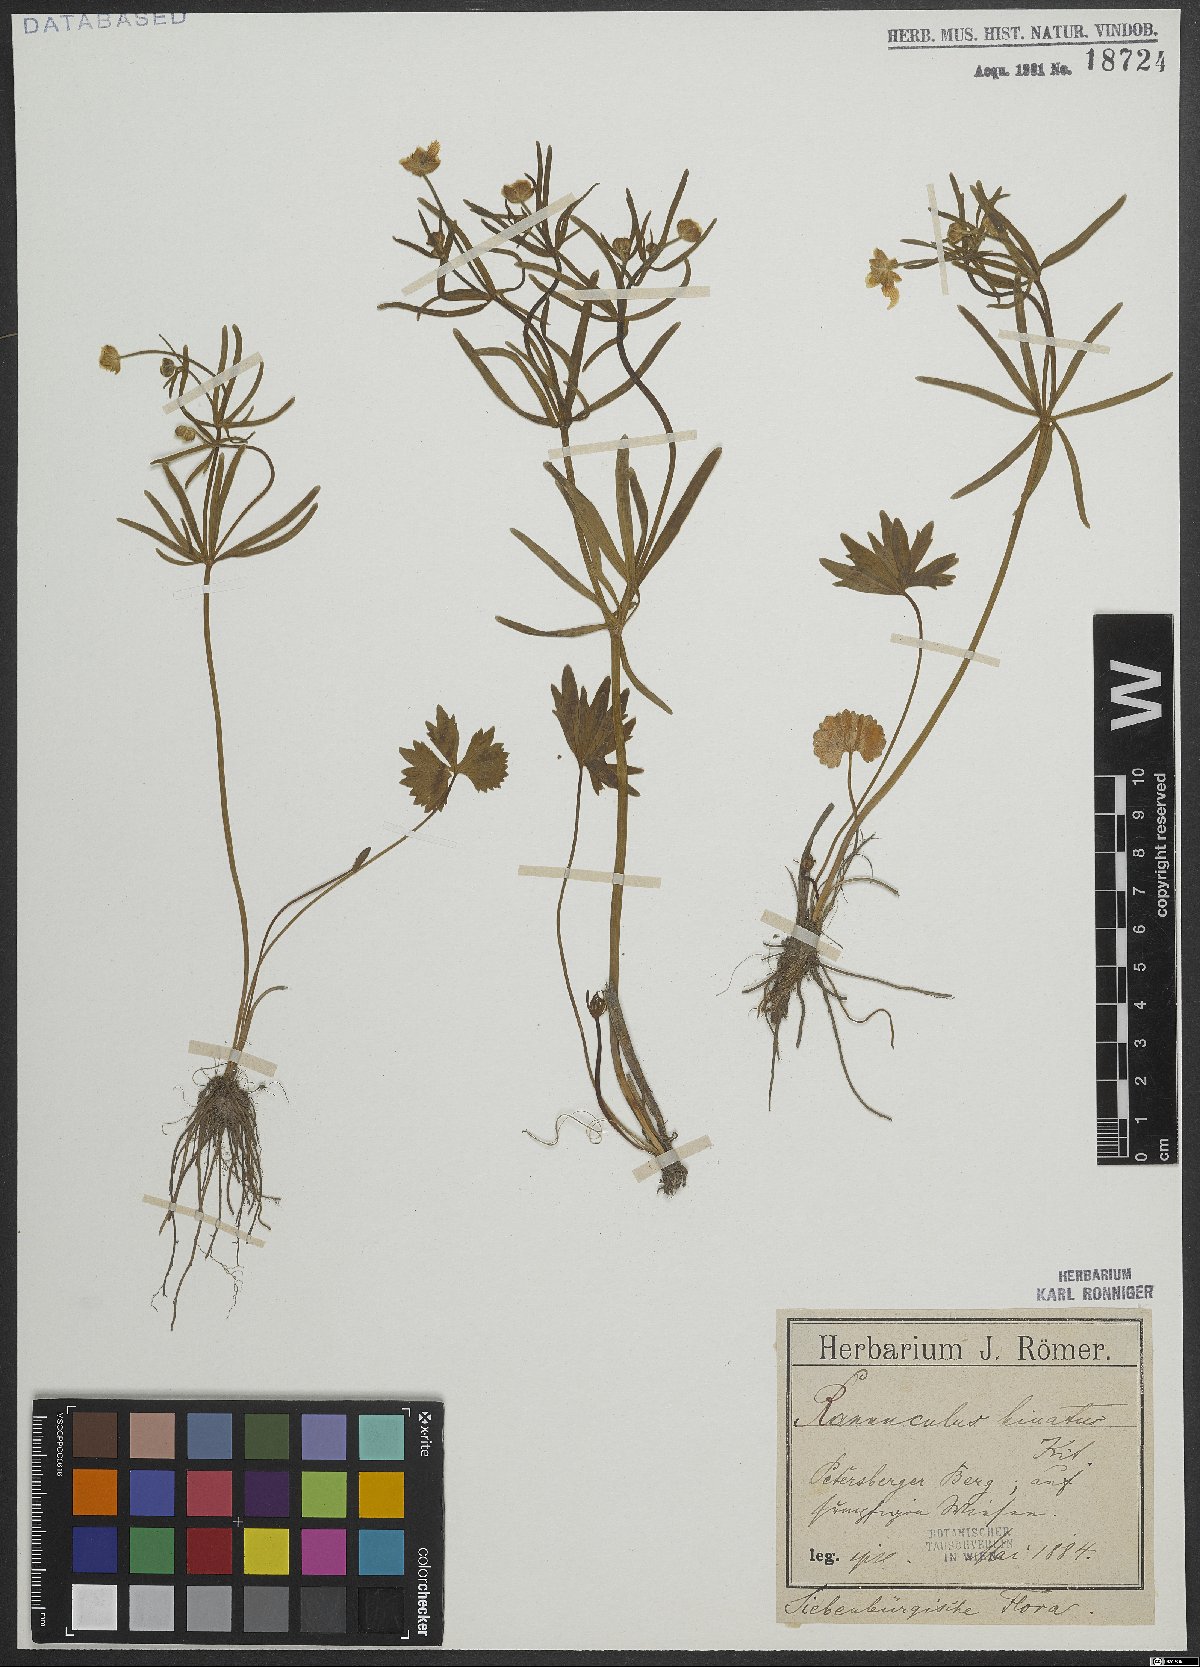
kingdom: Plantae
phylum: Tracheophyta
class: Magnoliopsida
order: Ranunculales
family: Ranunculaceae
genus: Ranunculus
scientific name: Ranunculus binatus
